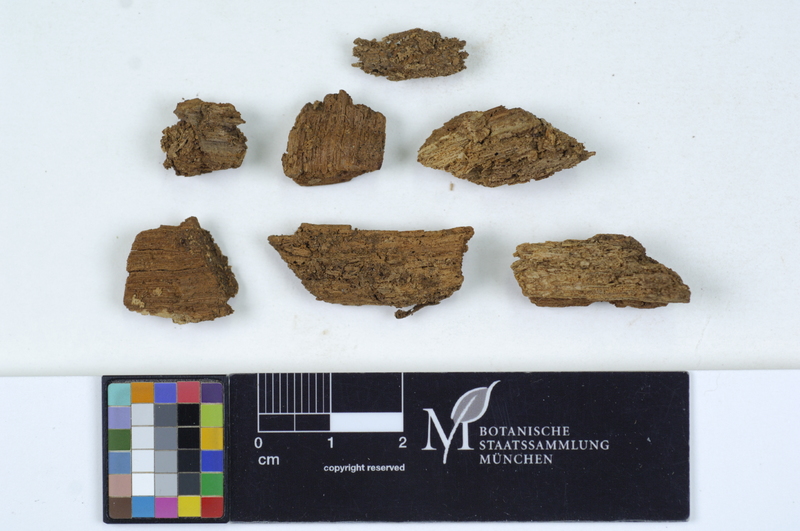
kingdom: Plantae
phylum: Tracheophyta
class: Magnoliopsida
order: Fagales
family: Fagaceae
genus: Quercus
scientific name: Quercus
